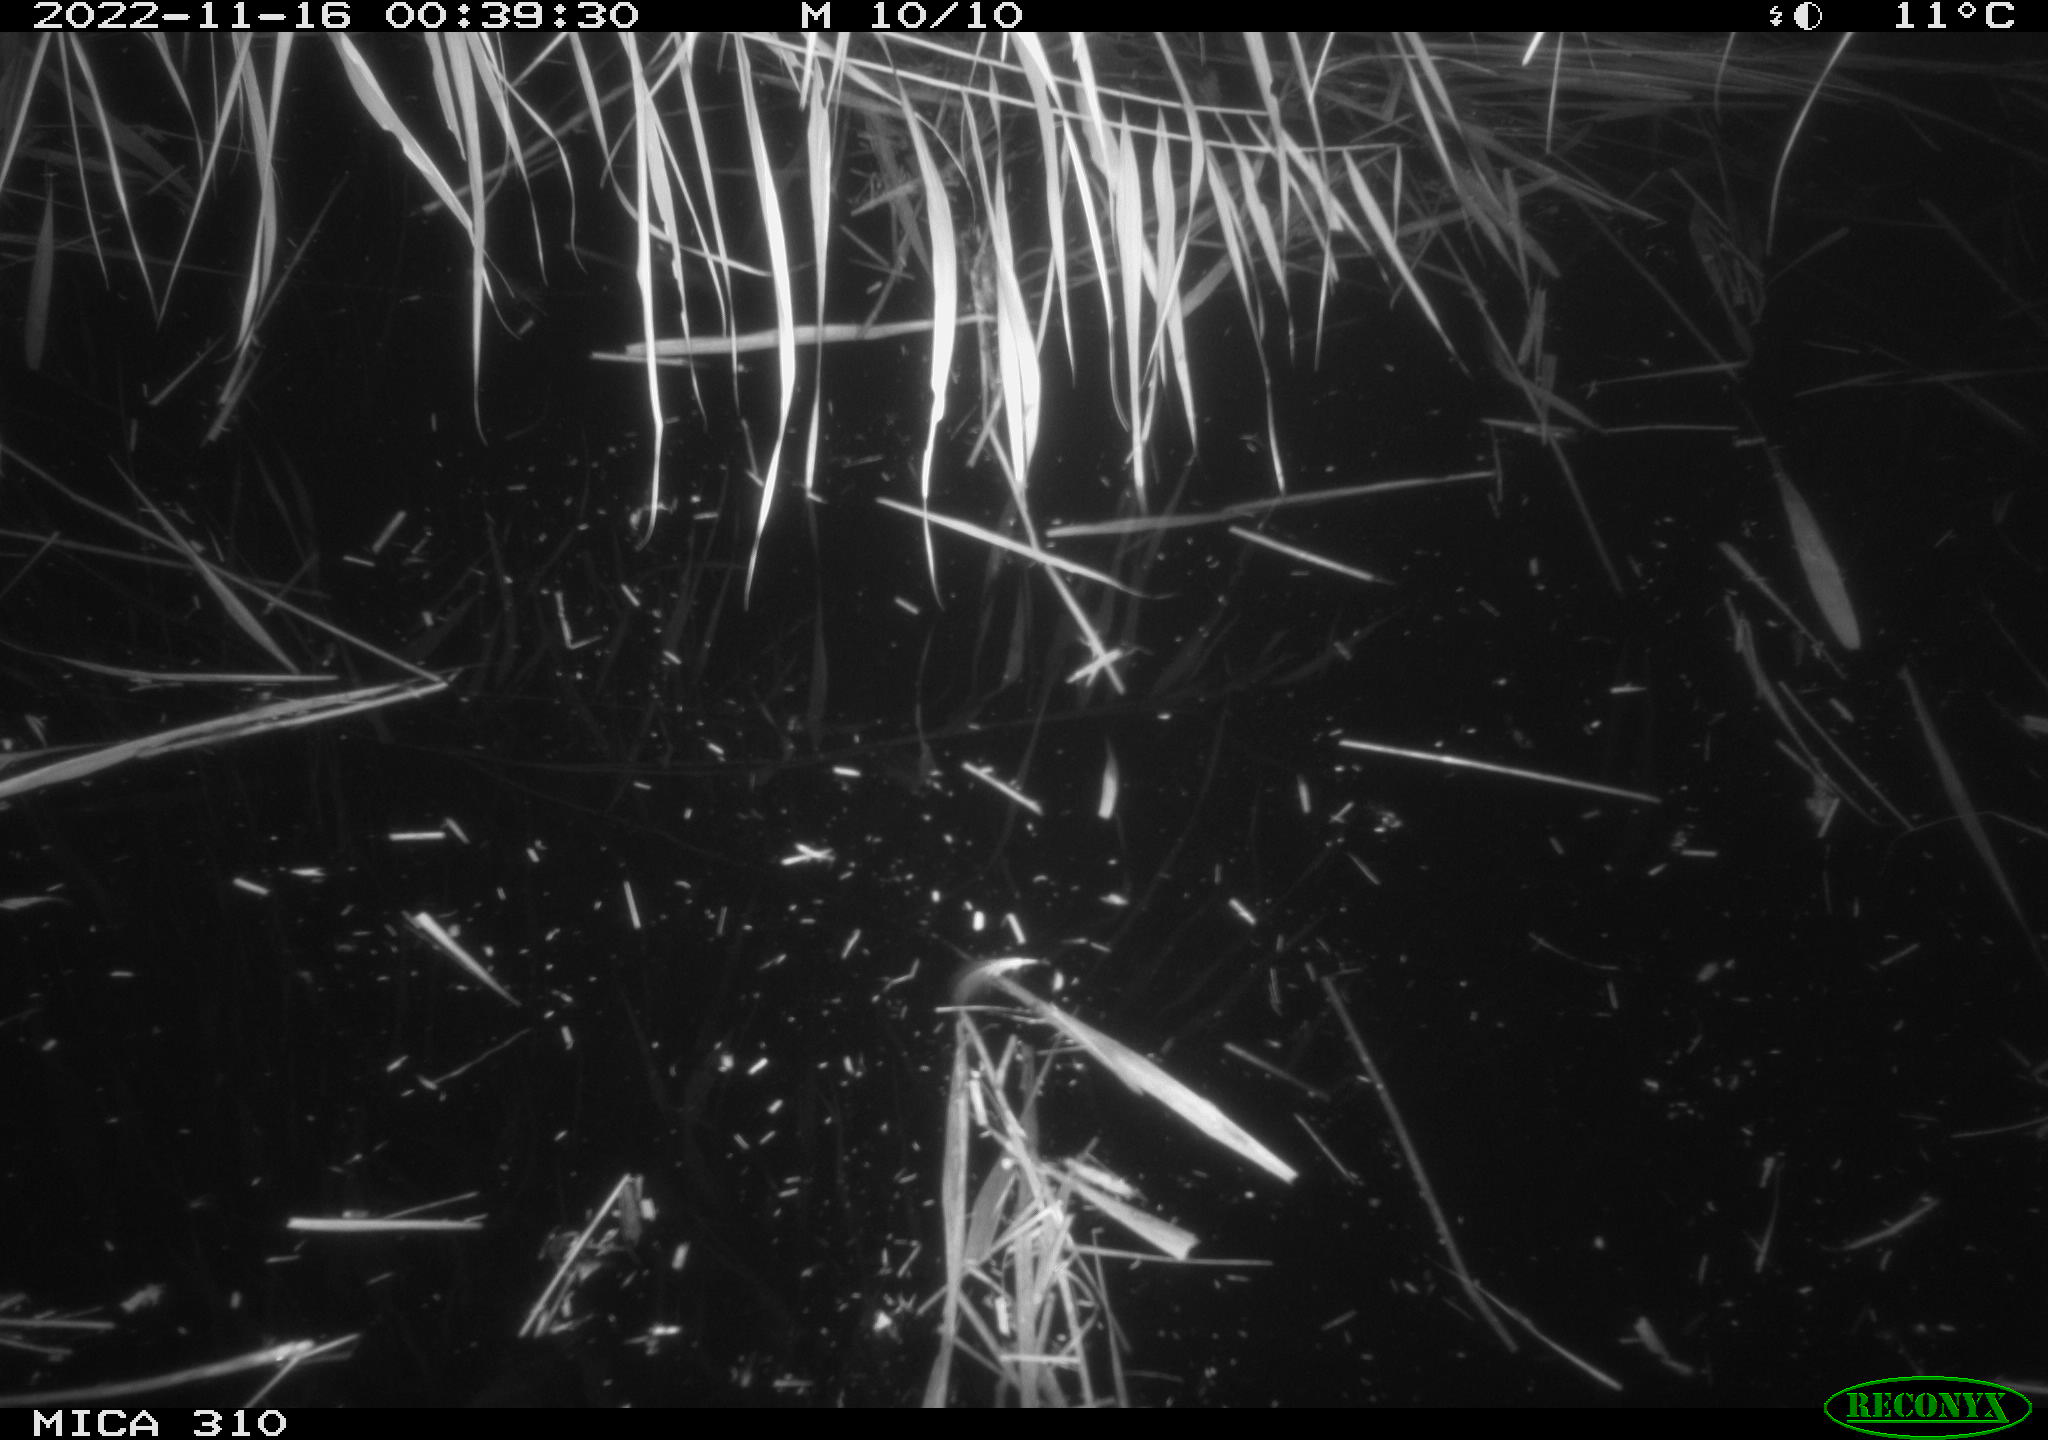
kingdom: Animalia
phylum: Chordata
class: Mammalia
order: Rodentia
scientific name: Rodentia
